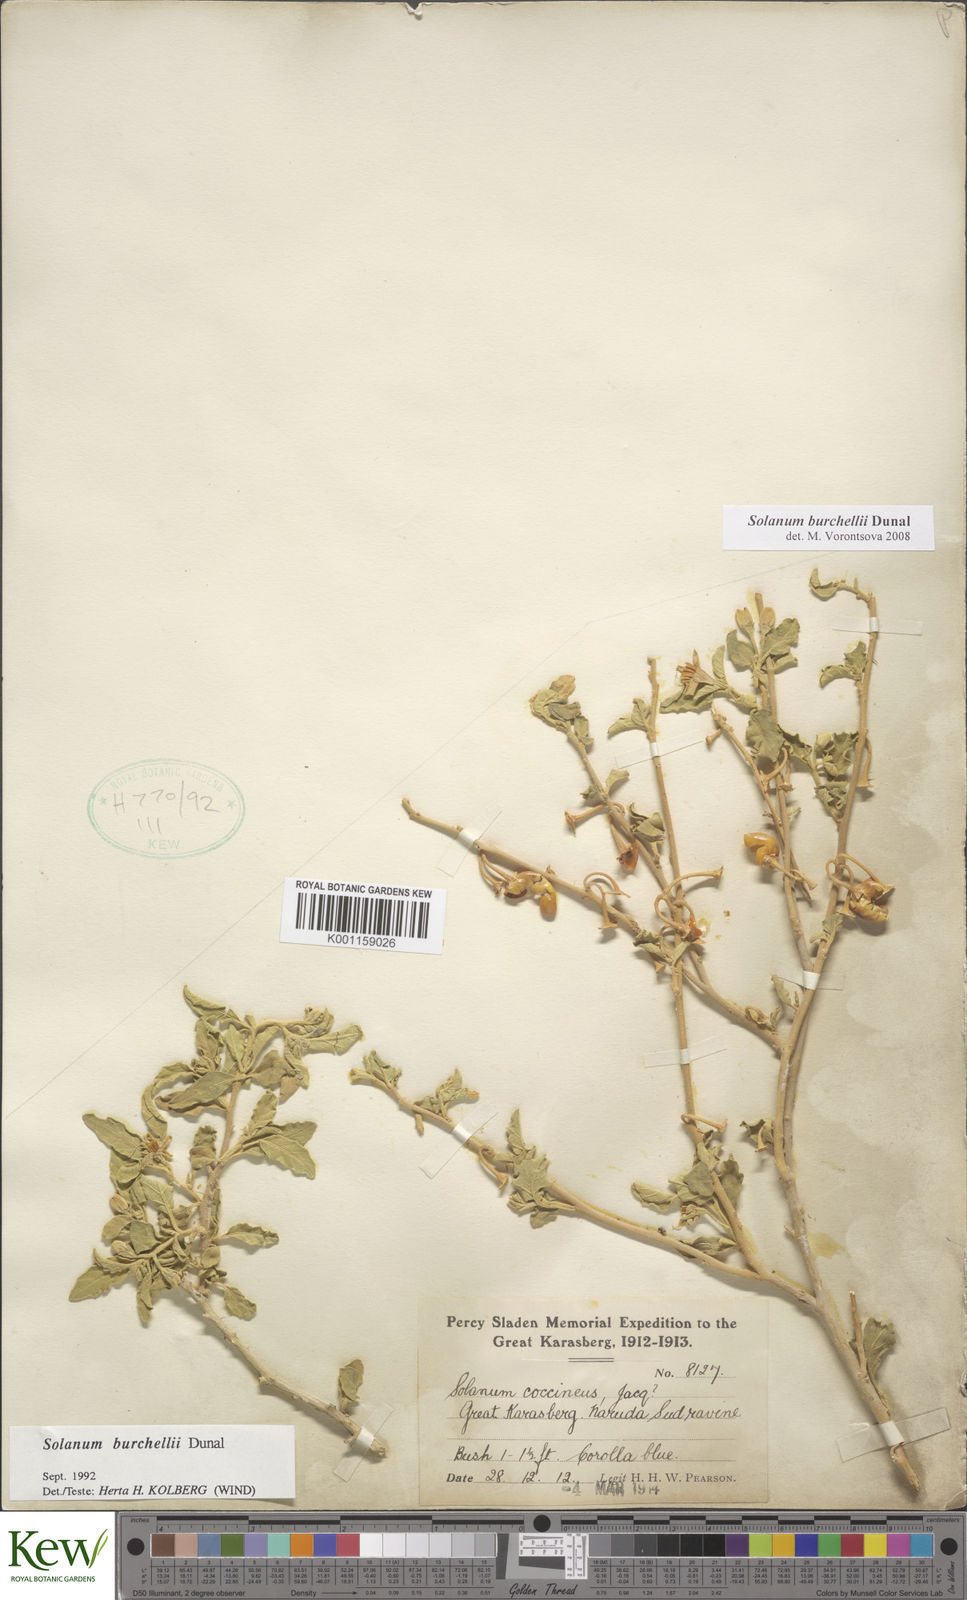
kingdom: Plantae
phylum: Tracheophyta
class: Magnoliopsida
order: Solanales
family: Solanaceae
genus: Solanum
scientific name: Solanum burchellii
